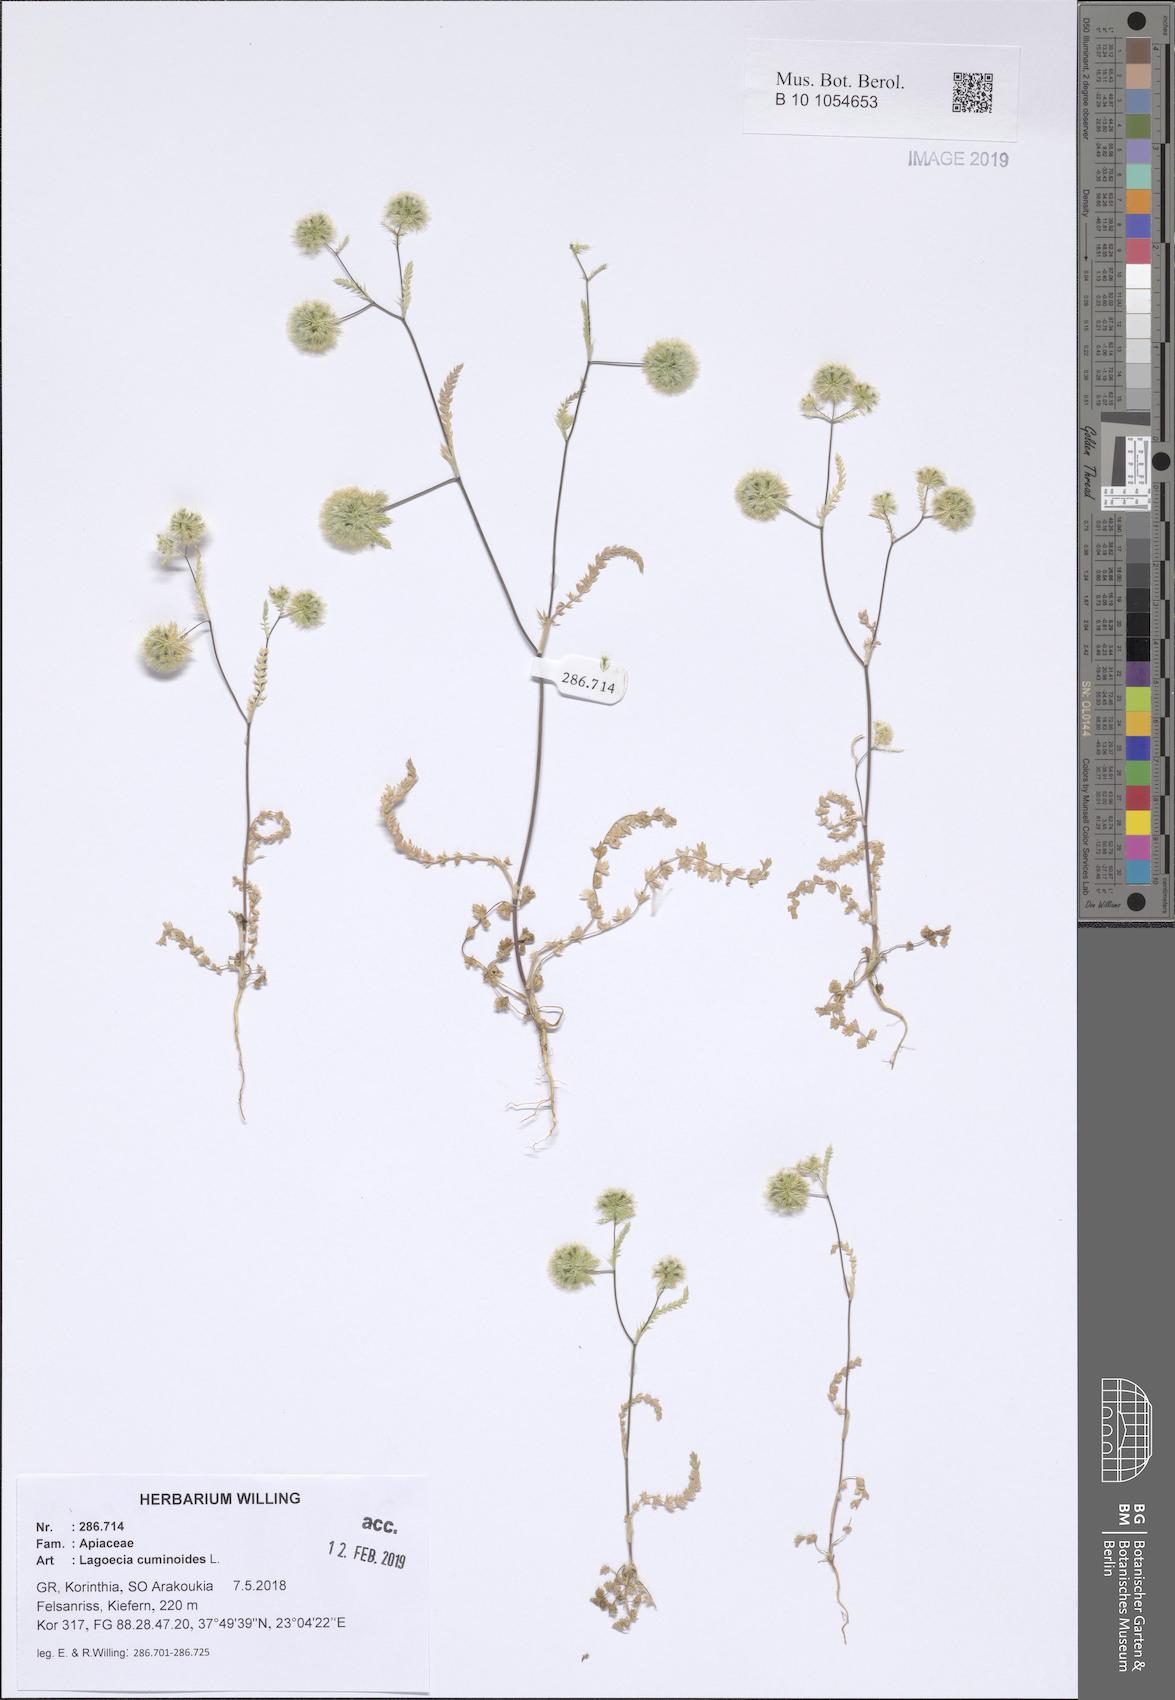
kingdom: Plantae
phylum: Tracheophyta
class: Magnoliopsida
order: Apiales
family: Apiaceae
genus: Lagoecia
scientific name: Lagoecia cuminoides
